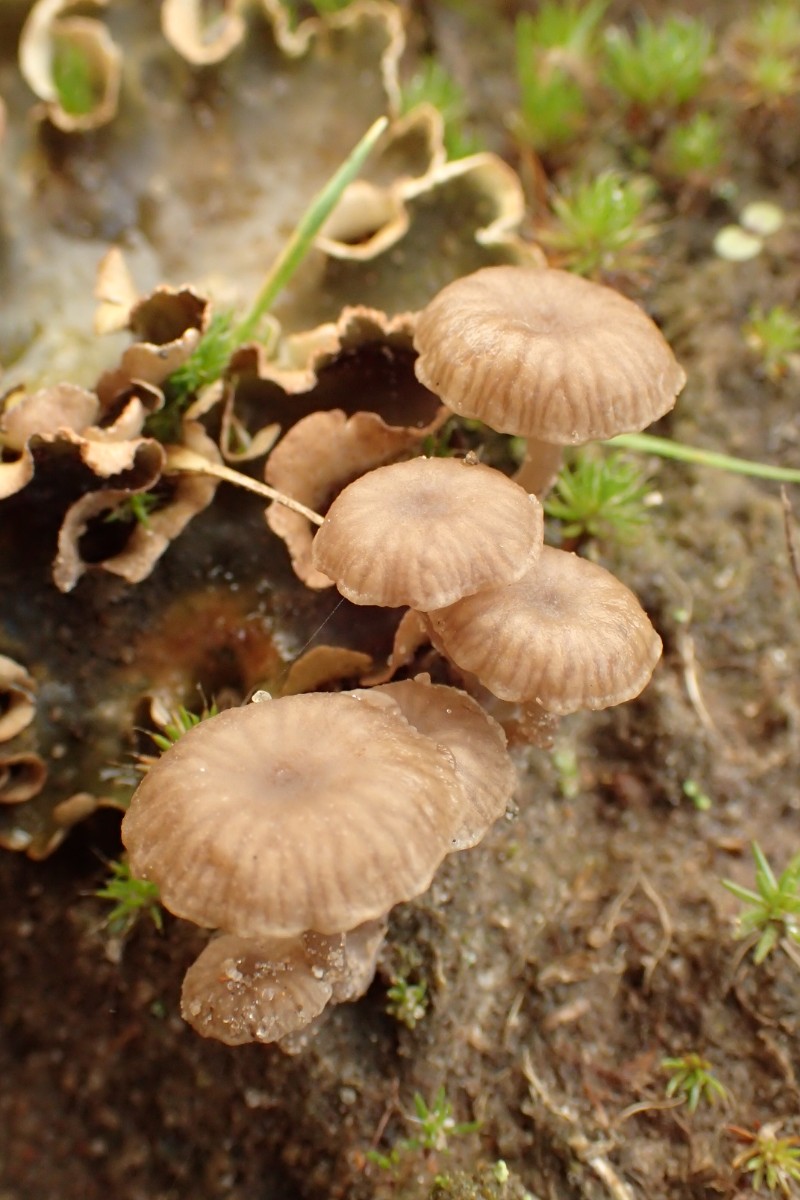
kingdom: Fungi
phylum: Basidiomycota
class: Agaricomycetes
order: Agaricales
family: Hygrophoraceae
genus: Arrhenia
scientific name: Arrhenia peltigerina
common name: skjoldlav-fontænehat
